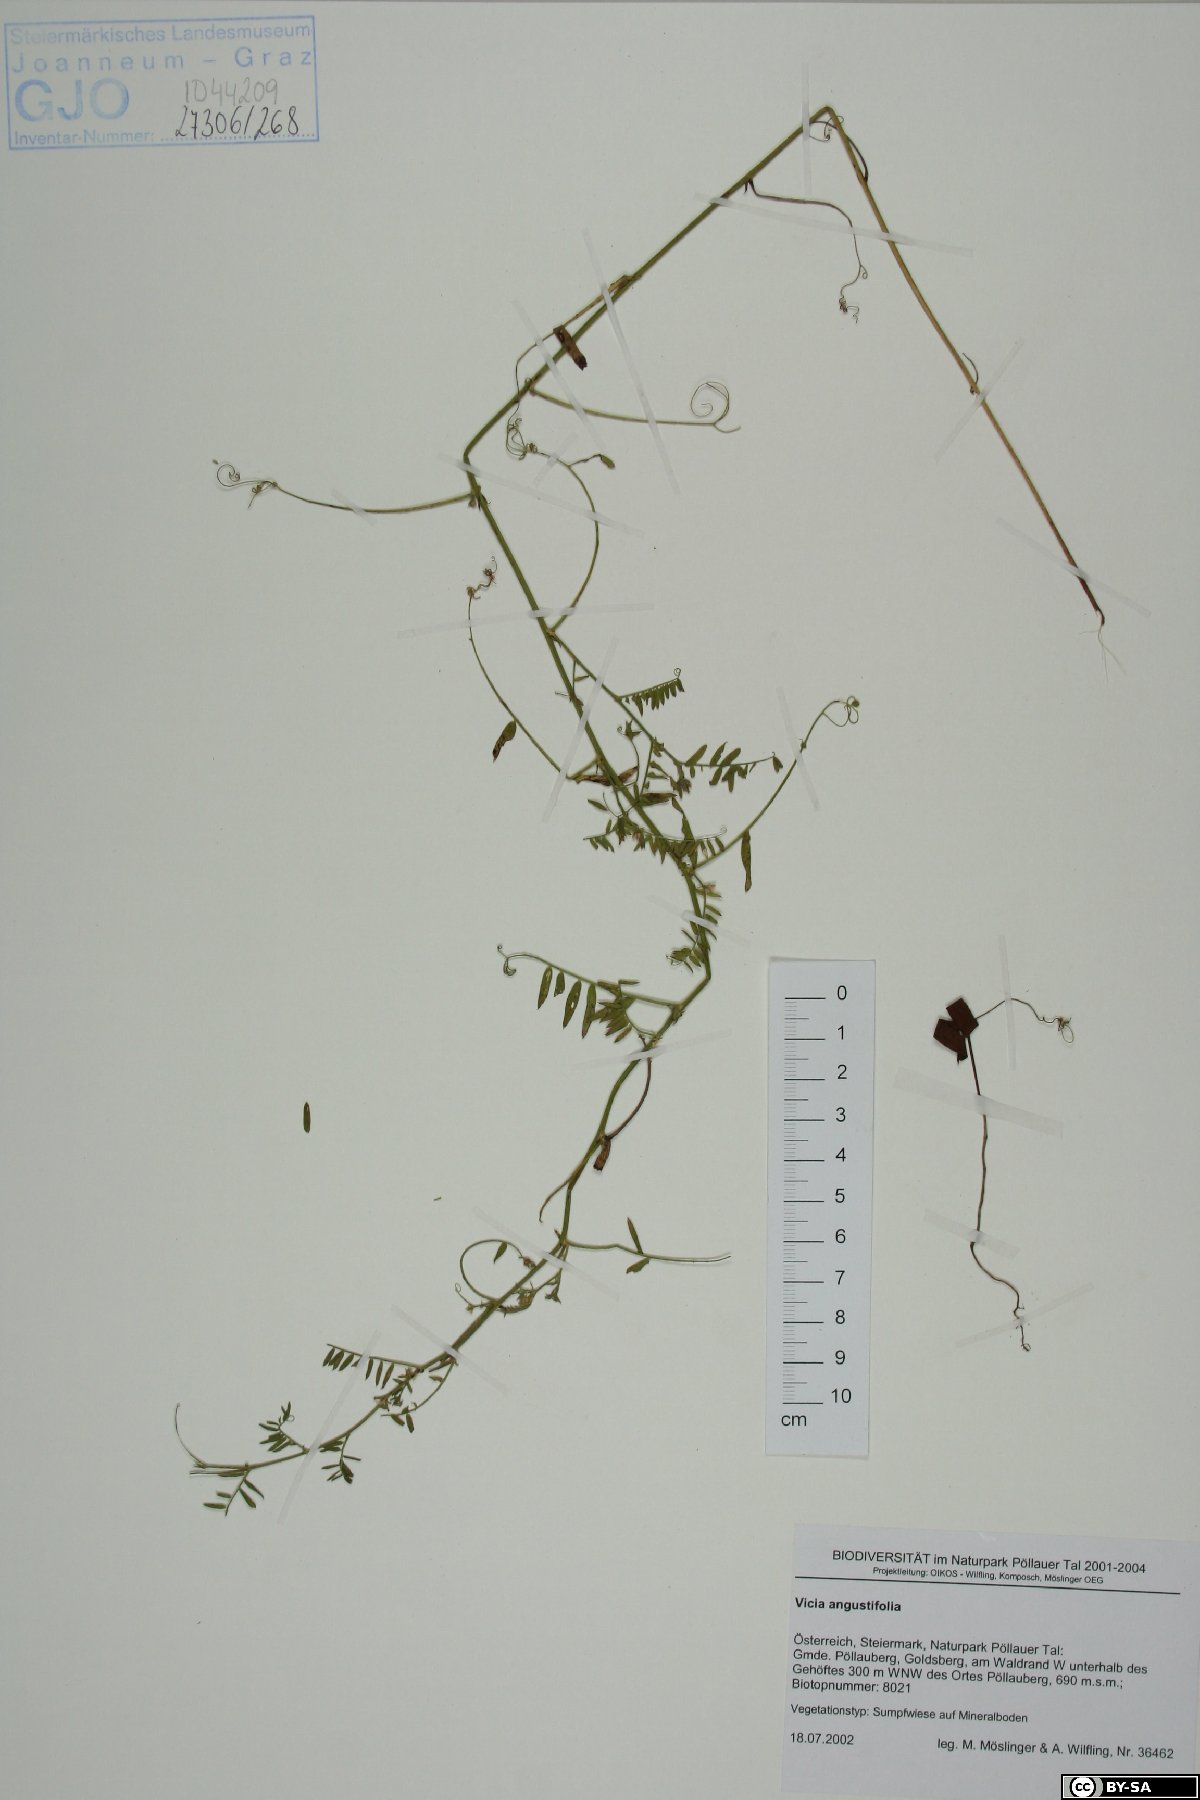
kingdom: Plantae
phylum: Tracheophyta
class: Magnoliopsida
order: Fabales
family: Fabaceae
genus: Vicia
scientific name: Vicia sativa
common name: Garden vetch
